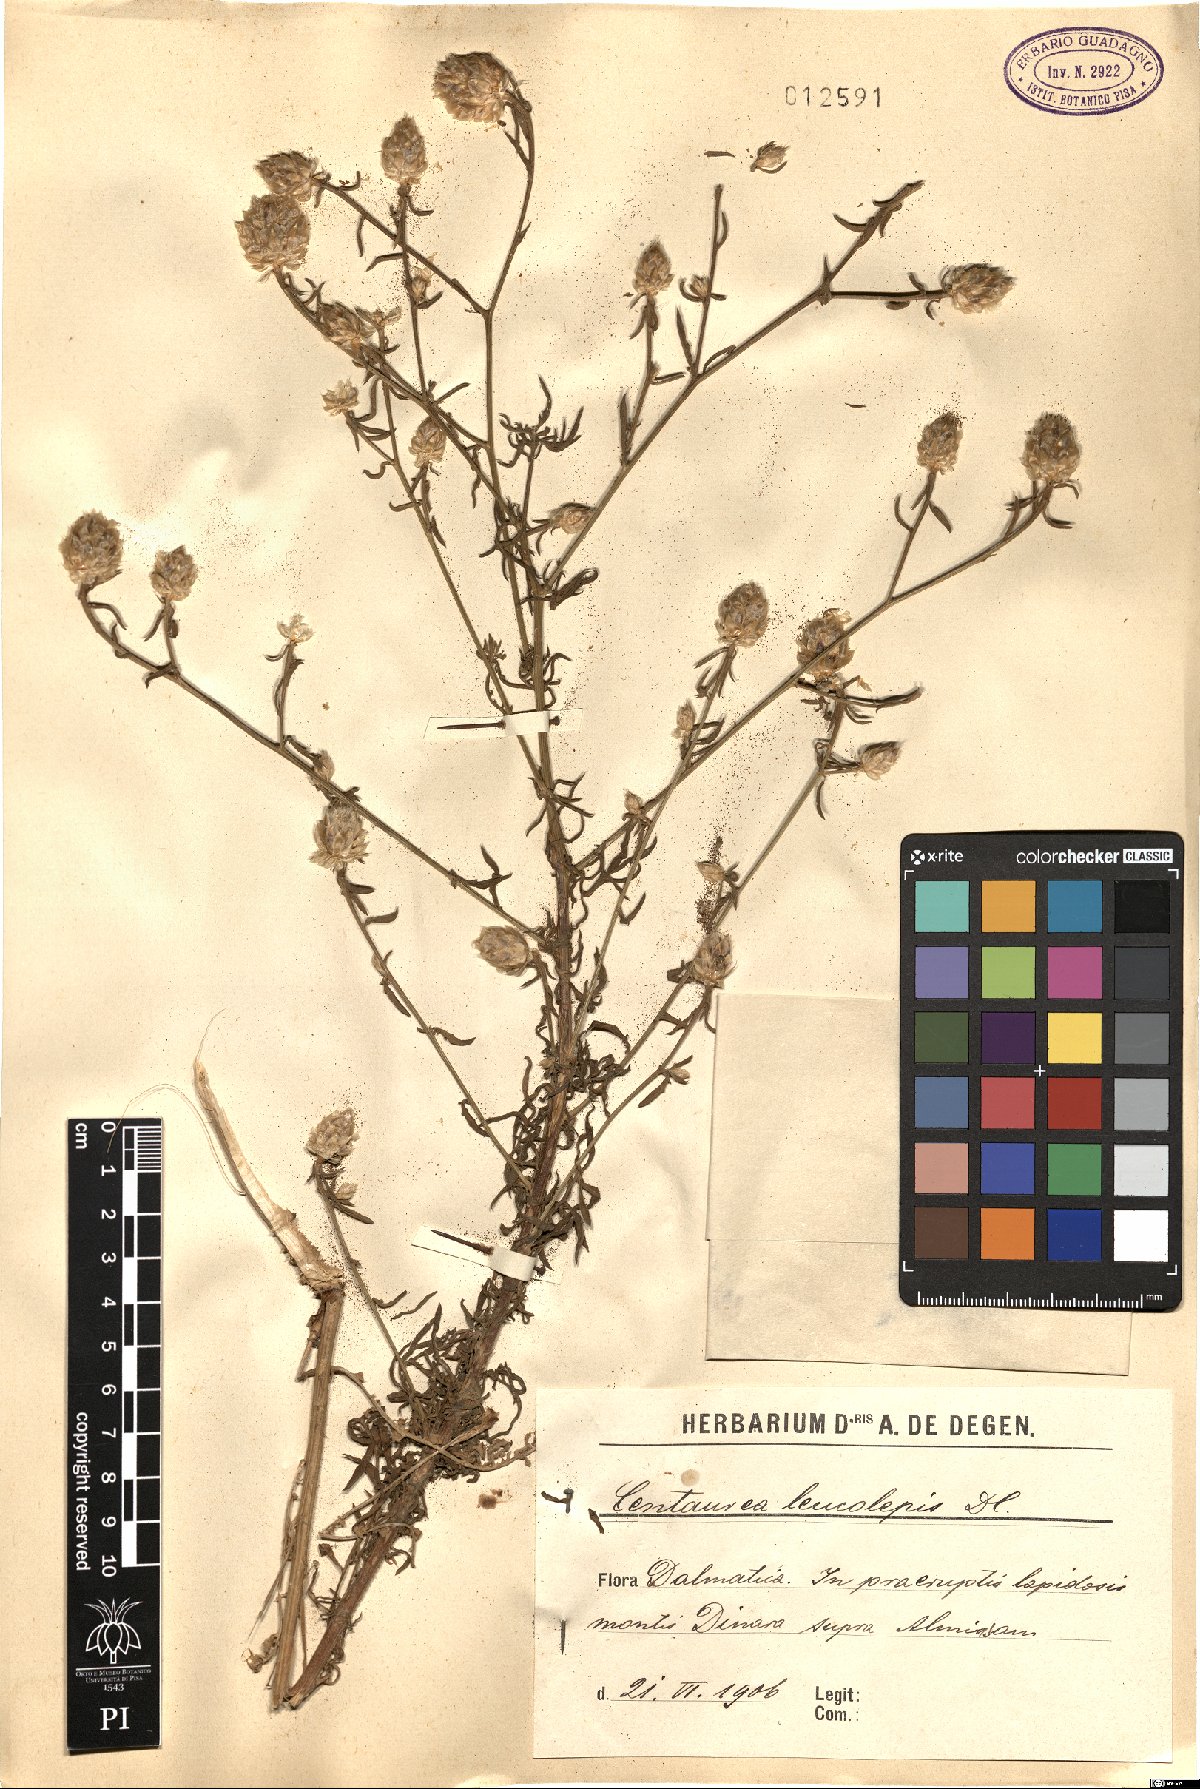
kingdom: Plantae
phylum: Tracheophyta
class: Magnoliopsida
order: Asterales
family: Asteraceae
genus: Centaurea
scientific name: Centaurea deusta
